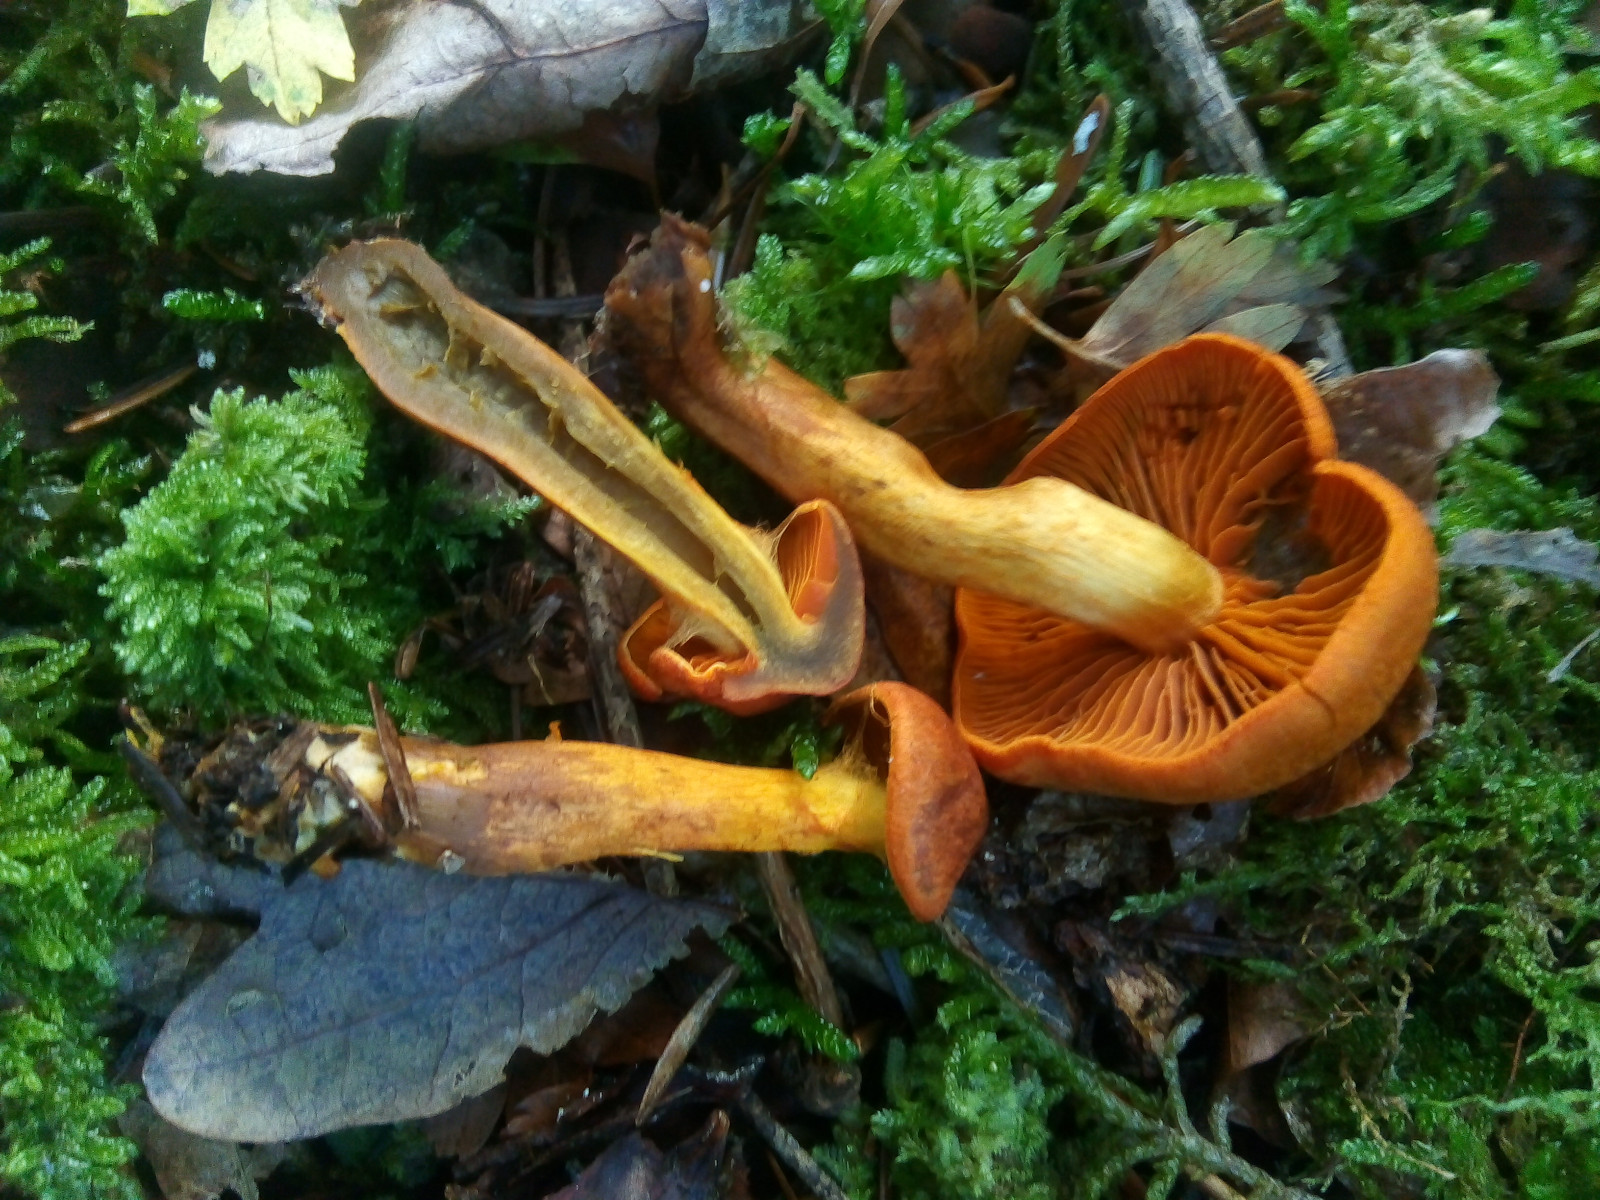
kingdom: Fungi
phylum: Basidiomycota
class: Agaricomycetes
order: Agaricales
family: Cortinariaceae
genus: Cortinarius
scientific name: Cortinarius malicorius
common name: grønkødet slørhat
